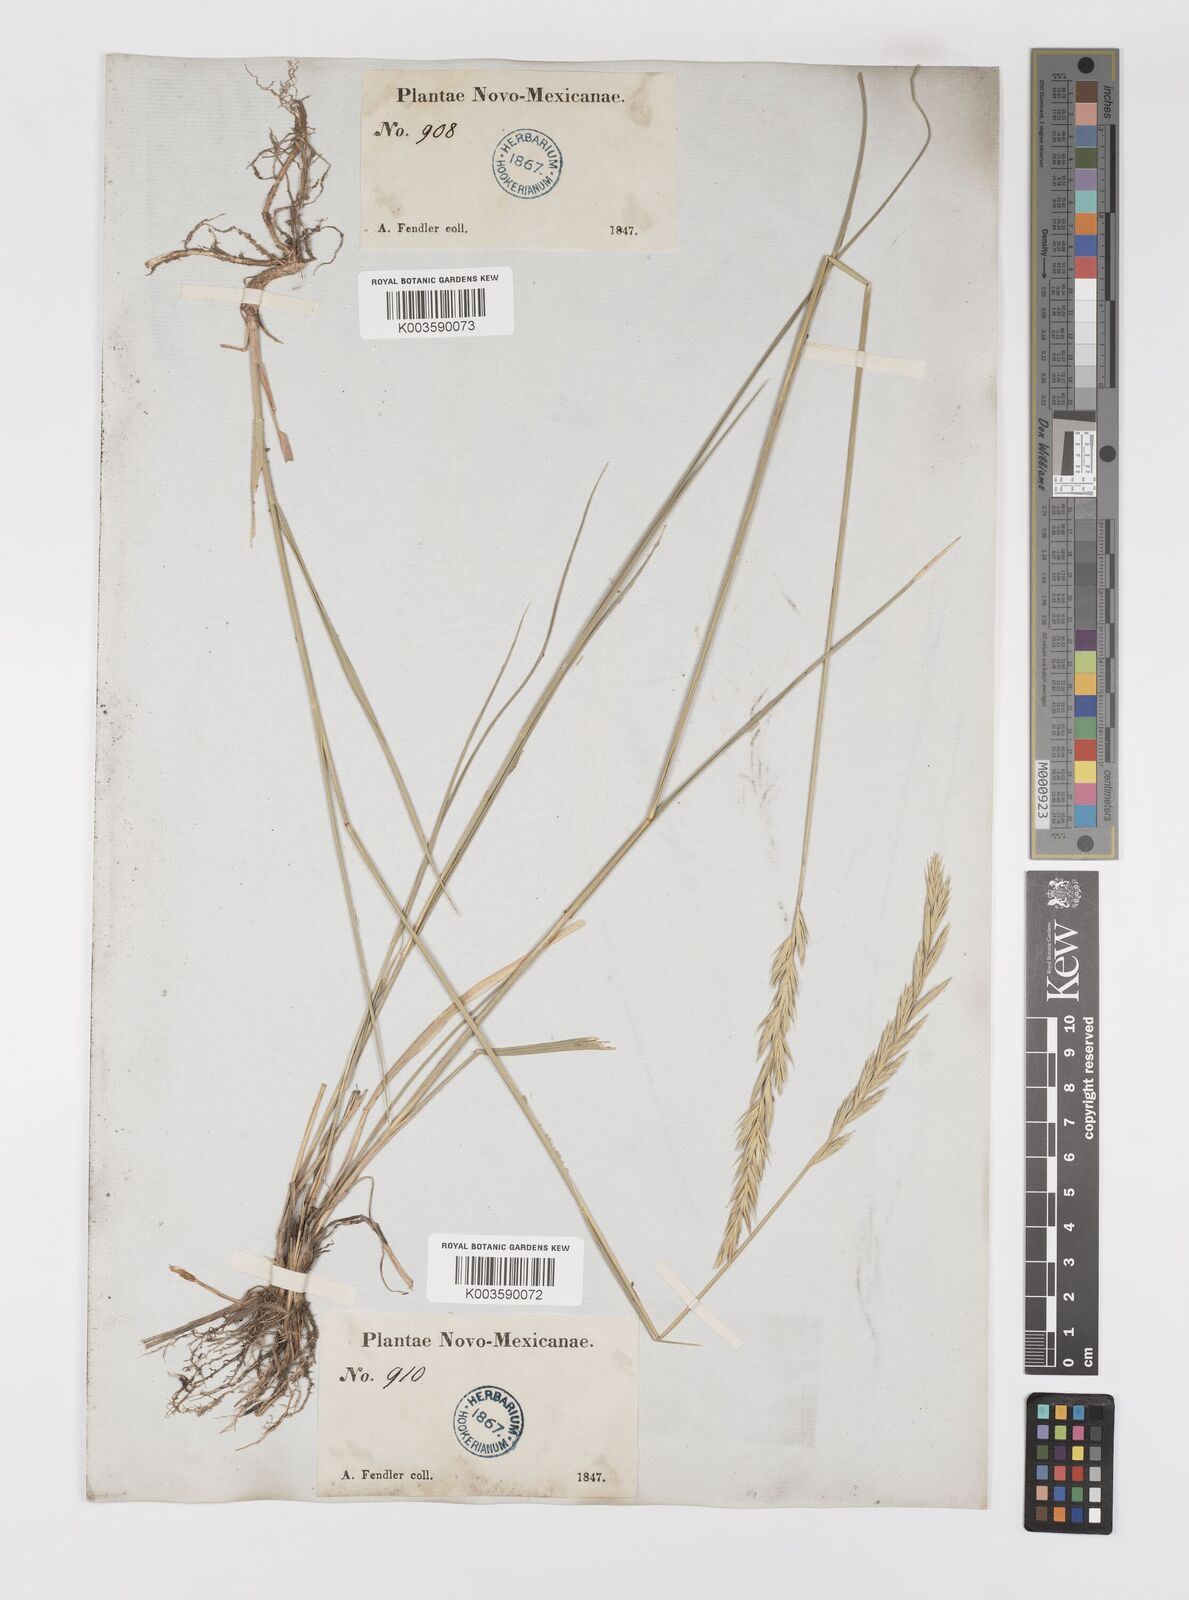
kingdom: Plantae
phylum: Tracheophyta
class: Liliopsida
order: Poales
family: Poaceae
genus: Elymus
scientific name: Elymus repens
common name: Quackgrass
